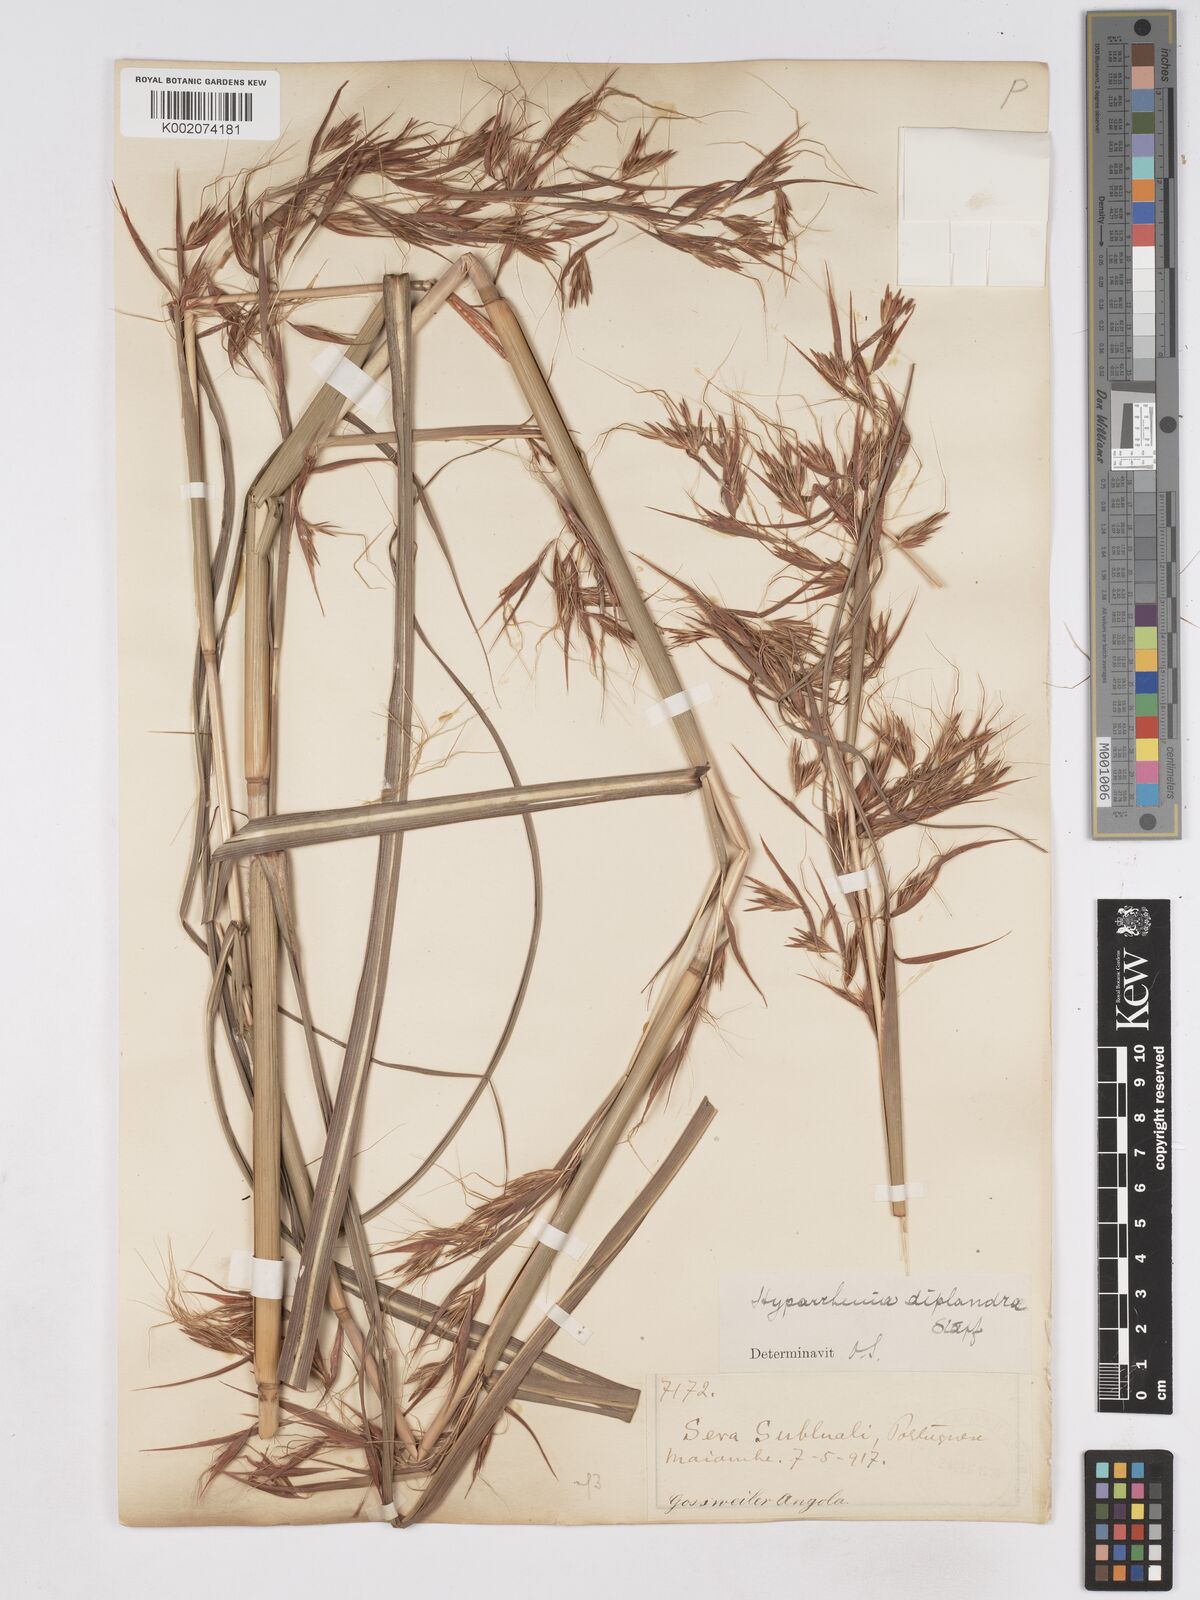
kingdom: Plantae
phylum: Tracheophyta
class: Liliopsida
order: Poales
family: Poaceae
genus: Hyparrhenia
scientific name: Hyparrhenia diplandra
